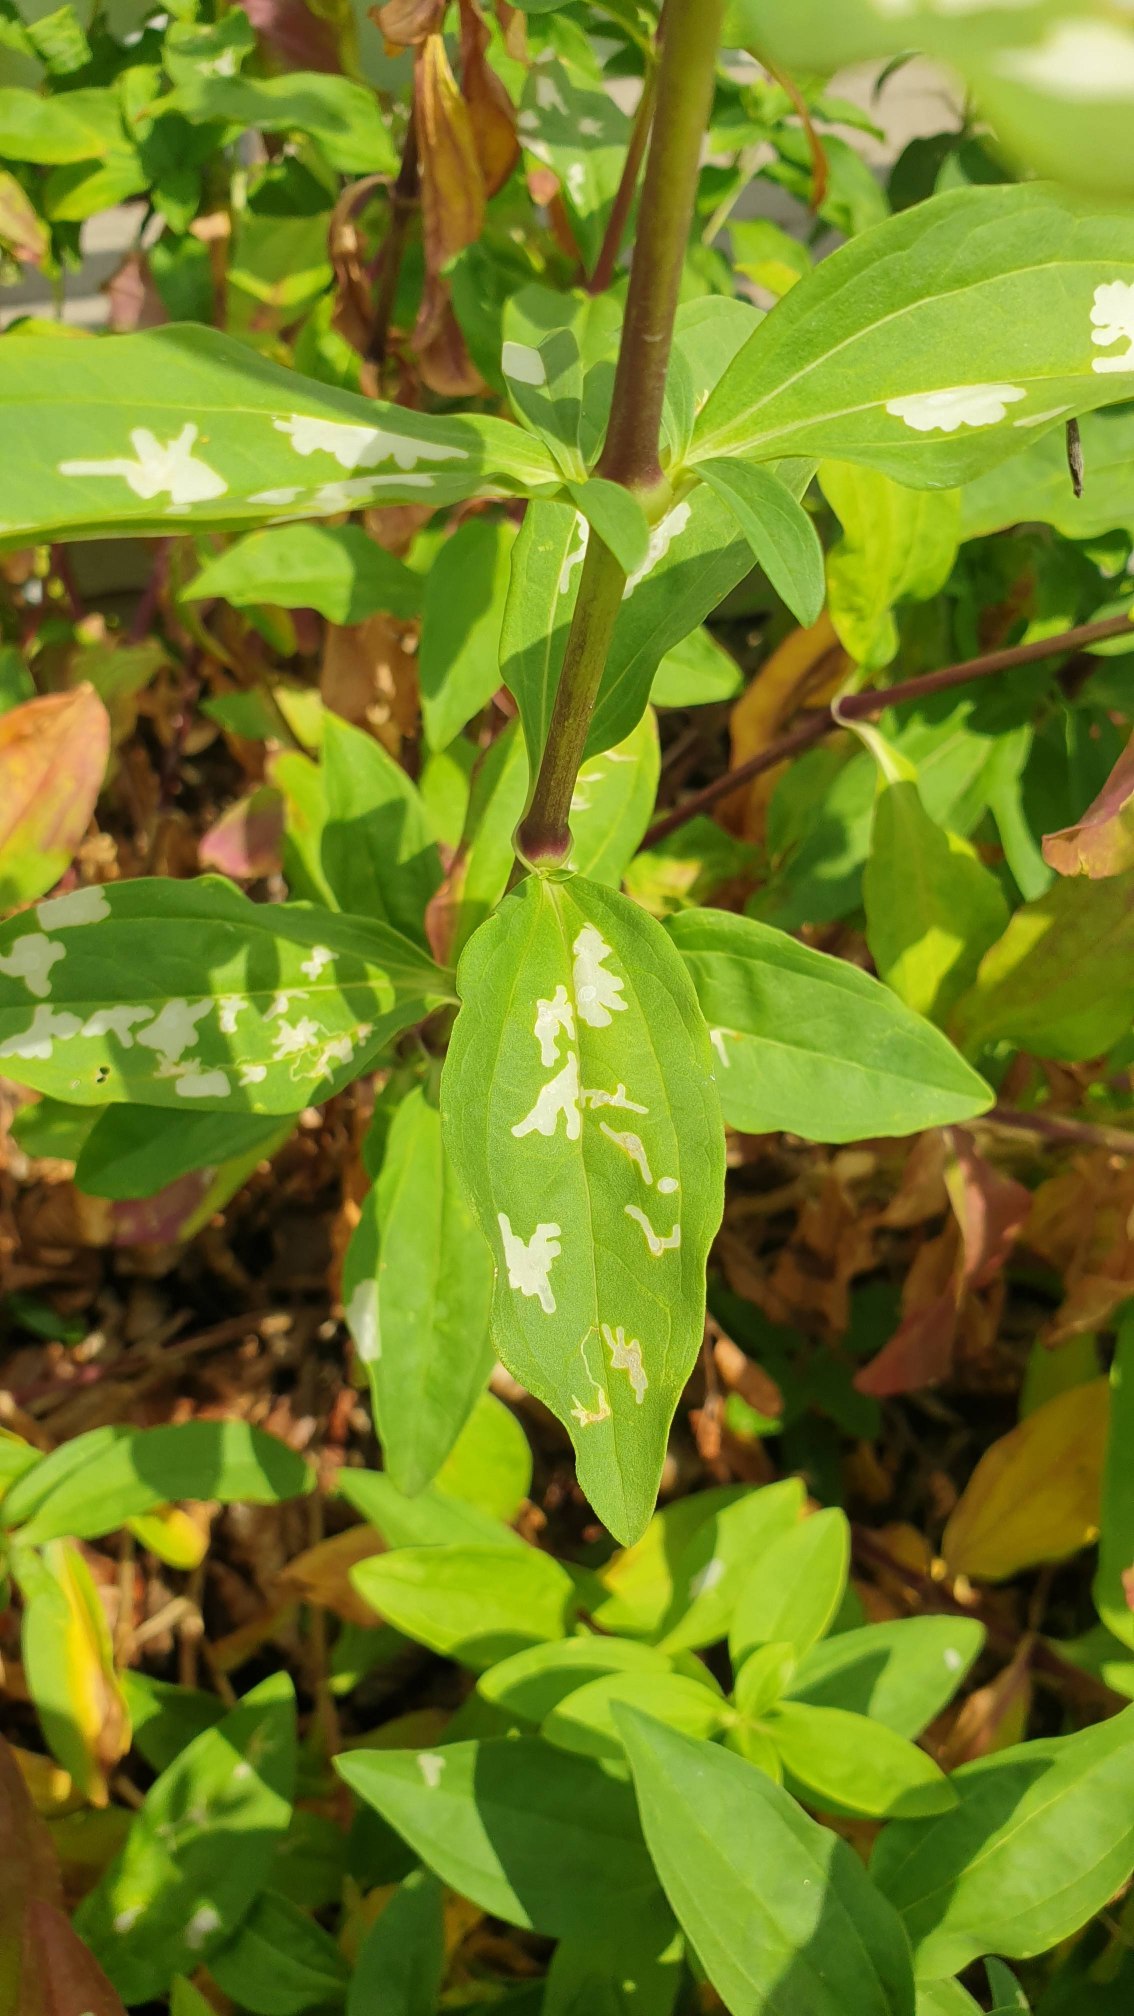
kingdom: Animalia
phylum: Arthropoda
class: Insecta
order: Lepidoptera
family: Coleophoridae
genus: Coleophora
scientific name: Coleophora saponariella
